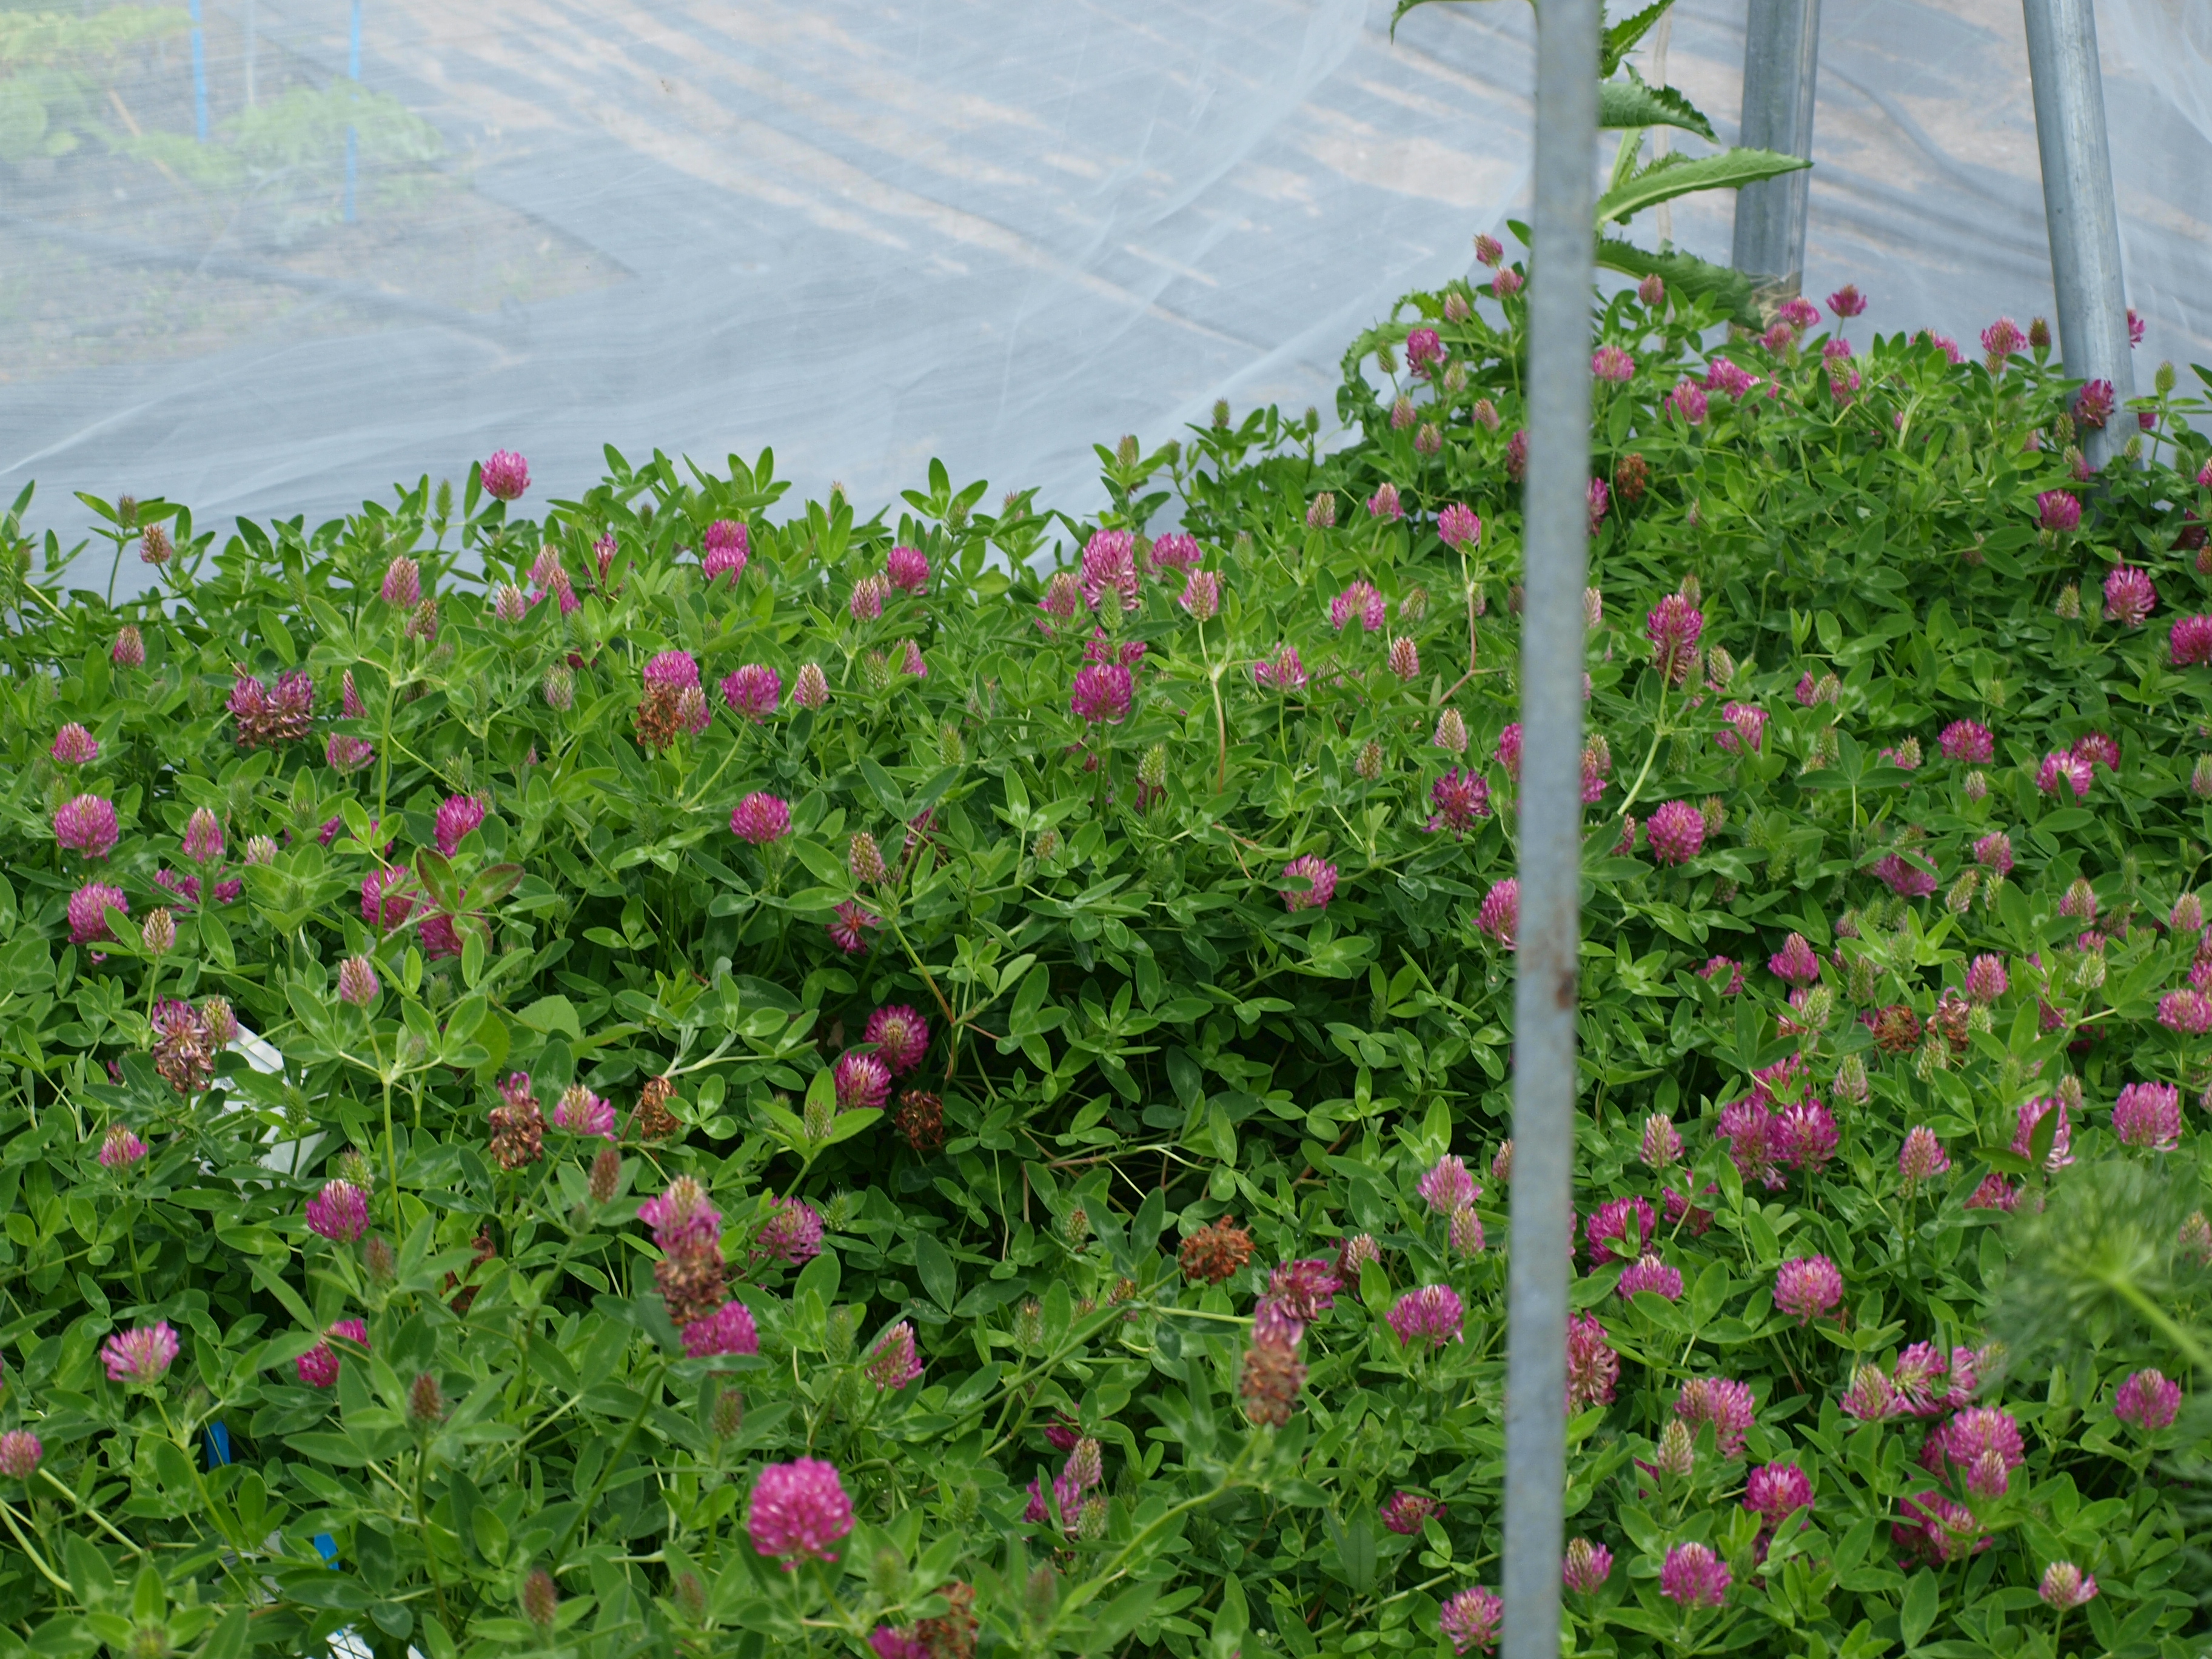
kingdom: Plantae
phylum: Tracheophyta
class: Magnoliopsida
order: Fabales
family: Fabaceae
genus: Trifolium
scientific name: Trifolium medium
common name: Zigzag clover
